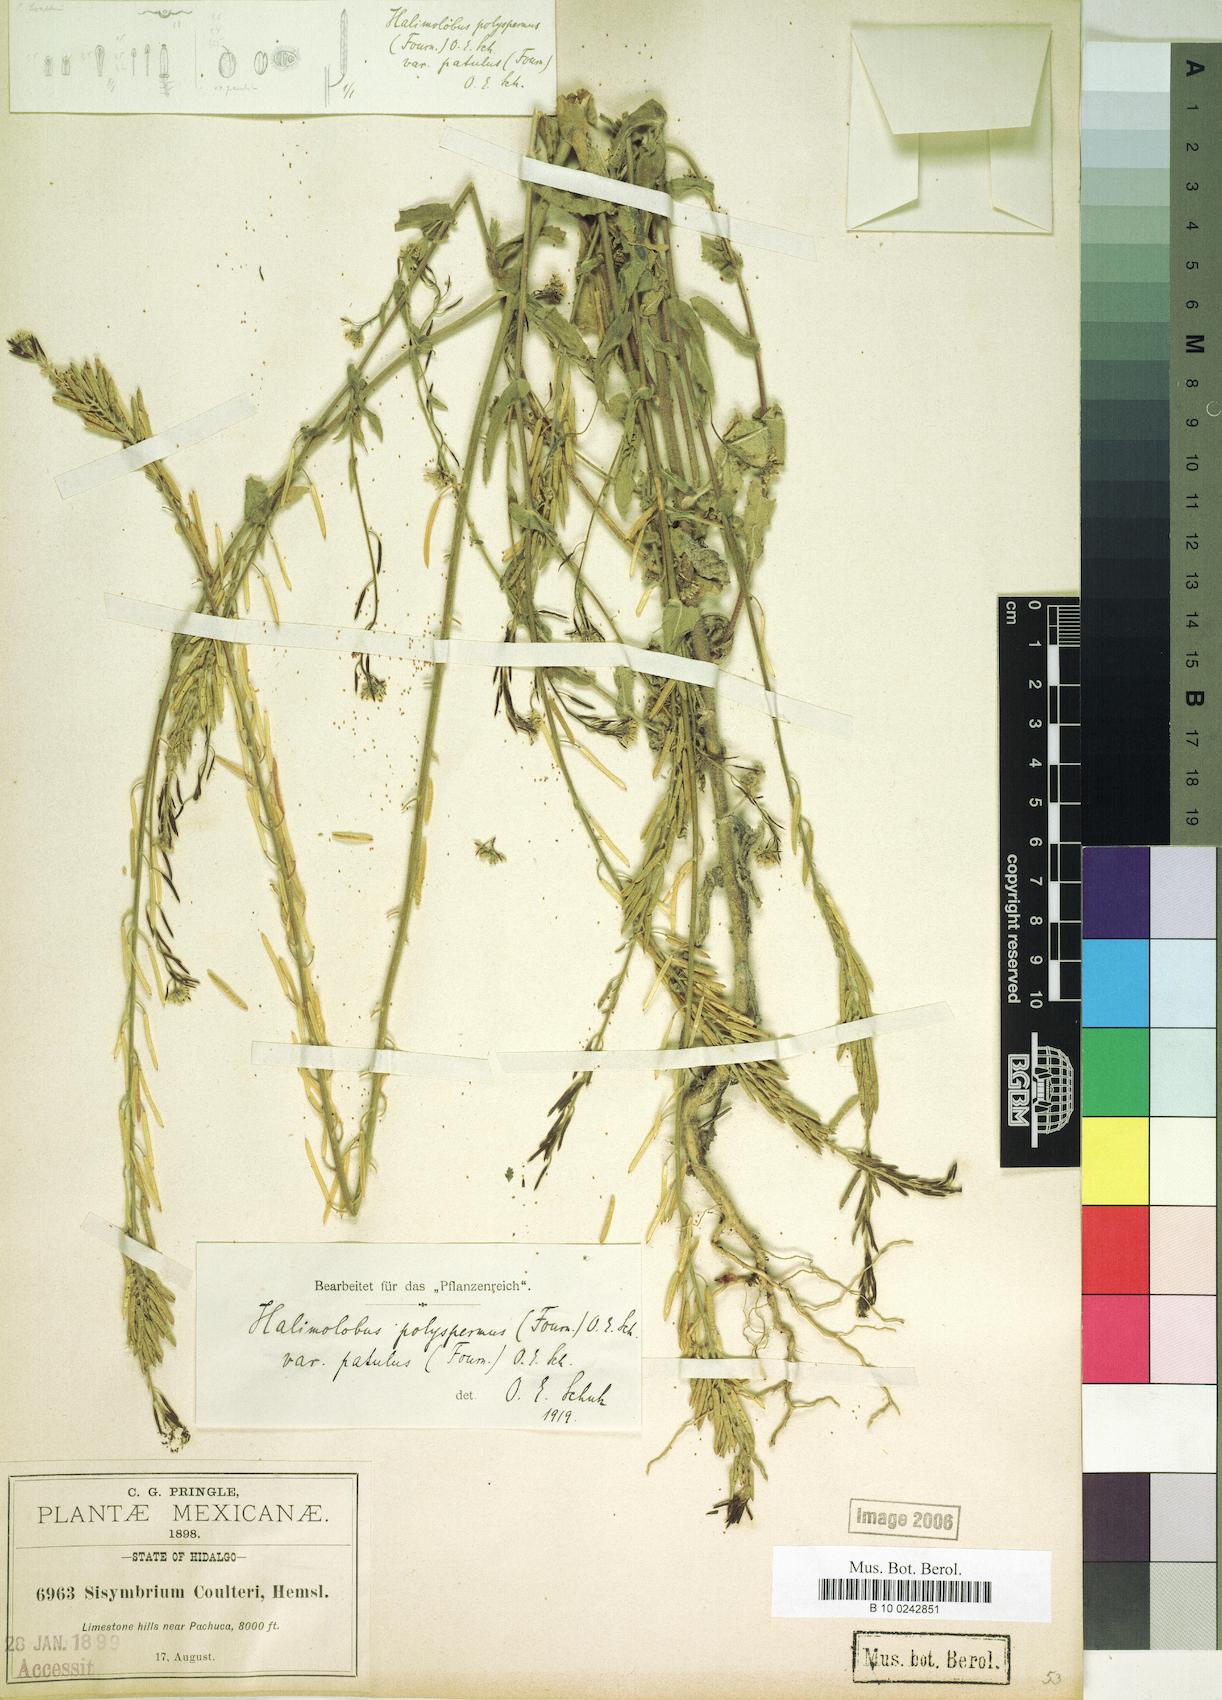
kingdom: Plantae
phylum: Tracheophyta
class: Magnoliopsida
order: Brassicales
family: Brassicaceae
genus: Halimolobus
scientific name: Halimolobus
